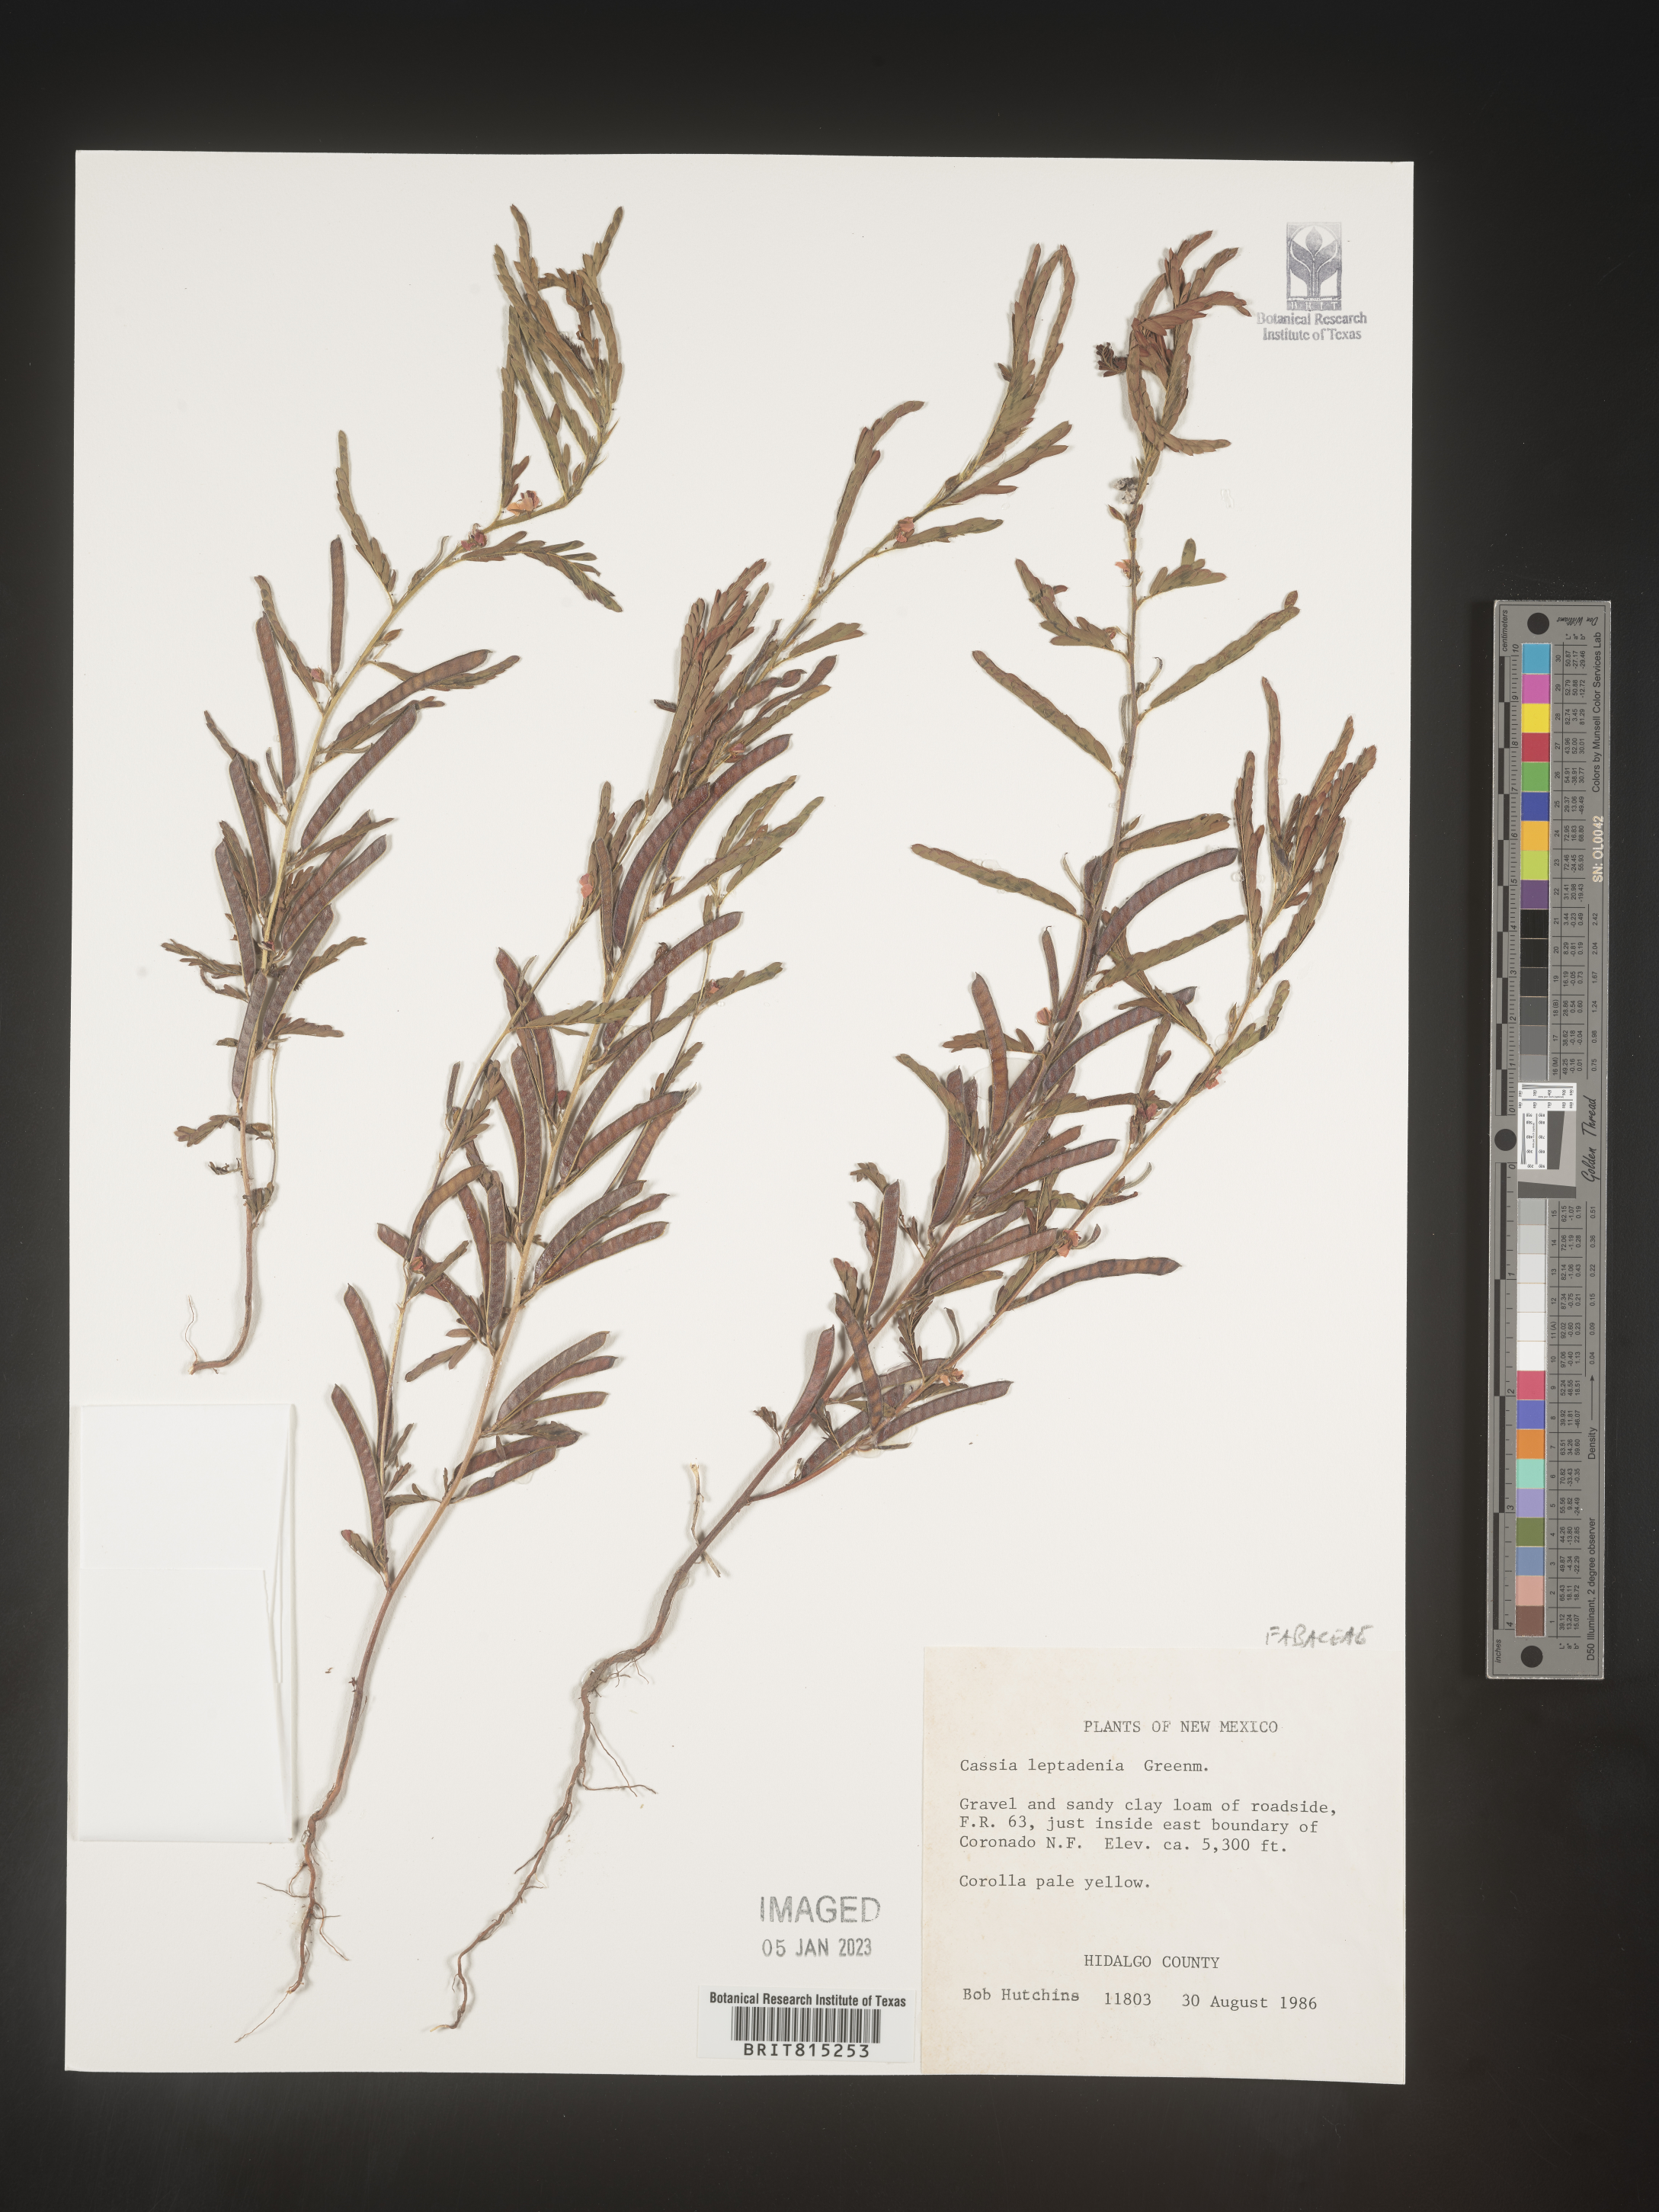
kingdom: Plantae
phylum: Tracheophyta
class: Magnoliopsida
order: Fabales
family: Fabaceae
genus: Cassia
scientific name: Cassia
